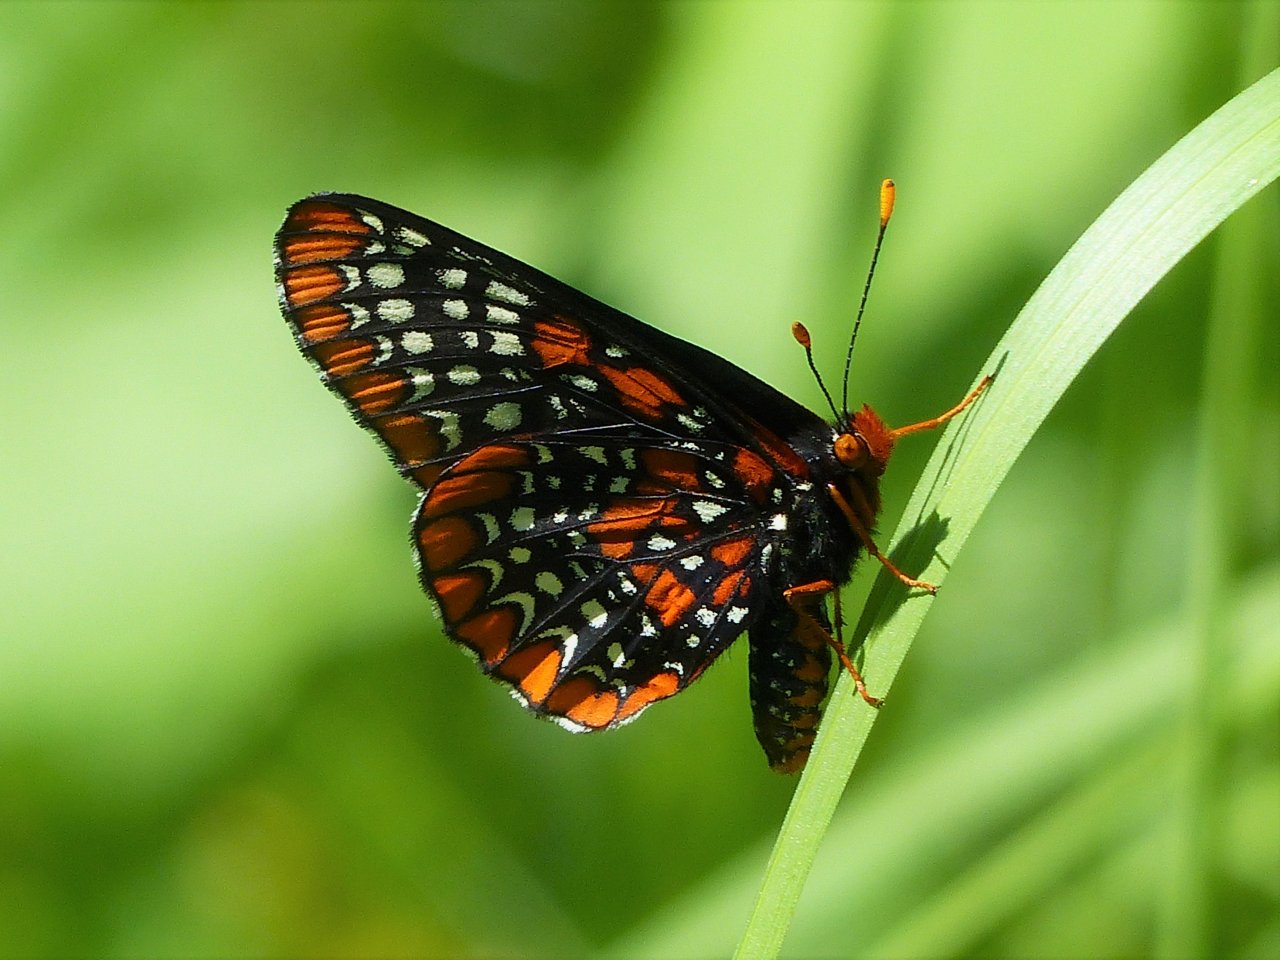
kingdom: Animalia
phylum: Arthropoda
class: Insecta
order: Lepidoptera
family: Nymphalidae
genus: Euphydryas
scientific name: Euphydryas phaeton
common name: Baltimore Checkerspot
